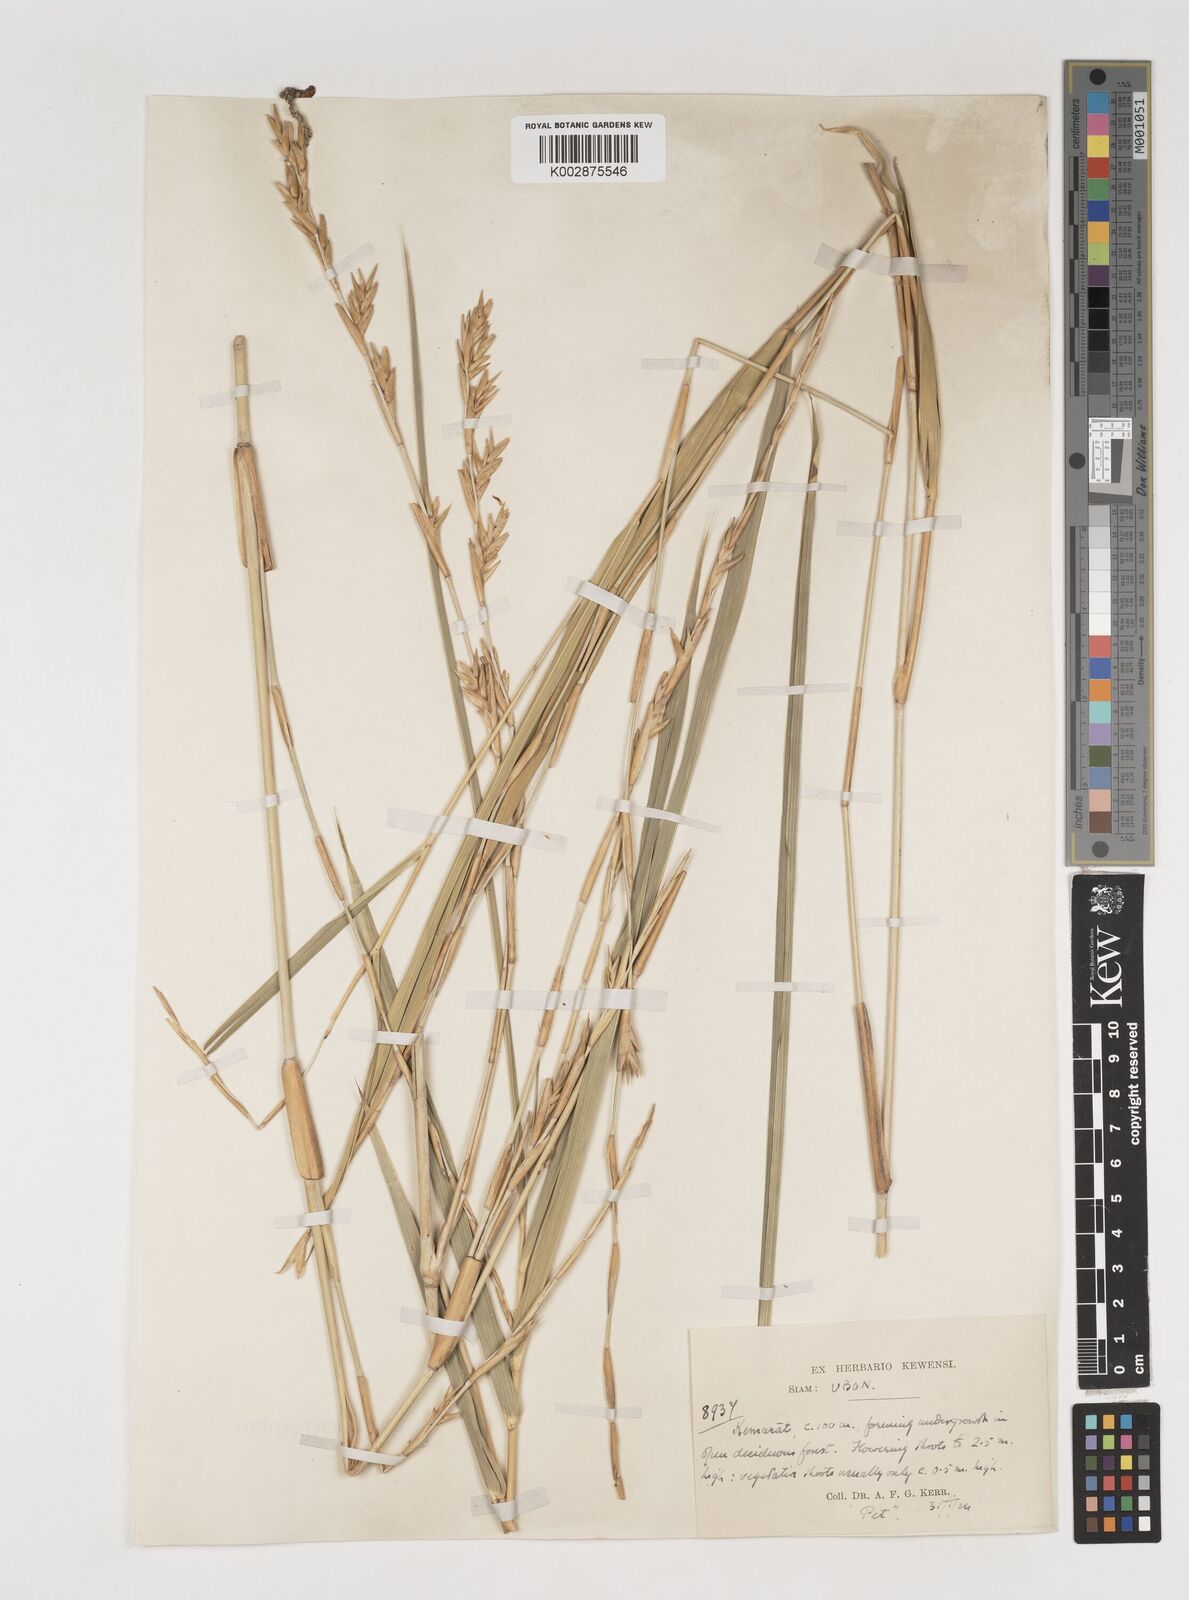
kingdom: Plantae
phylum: Tracheophyta
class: Liliopsida
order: Poales
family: Poaceae
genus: Vietnamosasa
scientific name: Vietnamosasa pusilla
